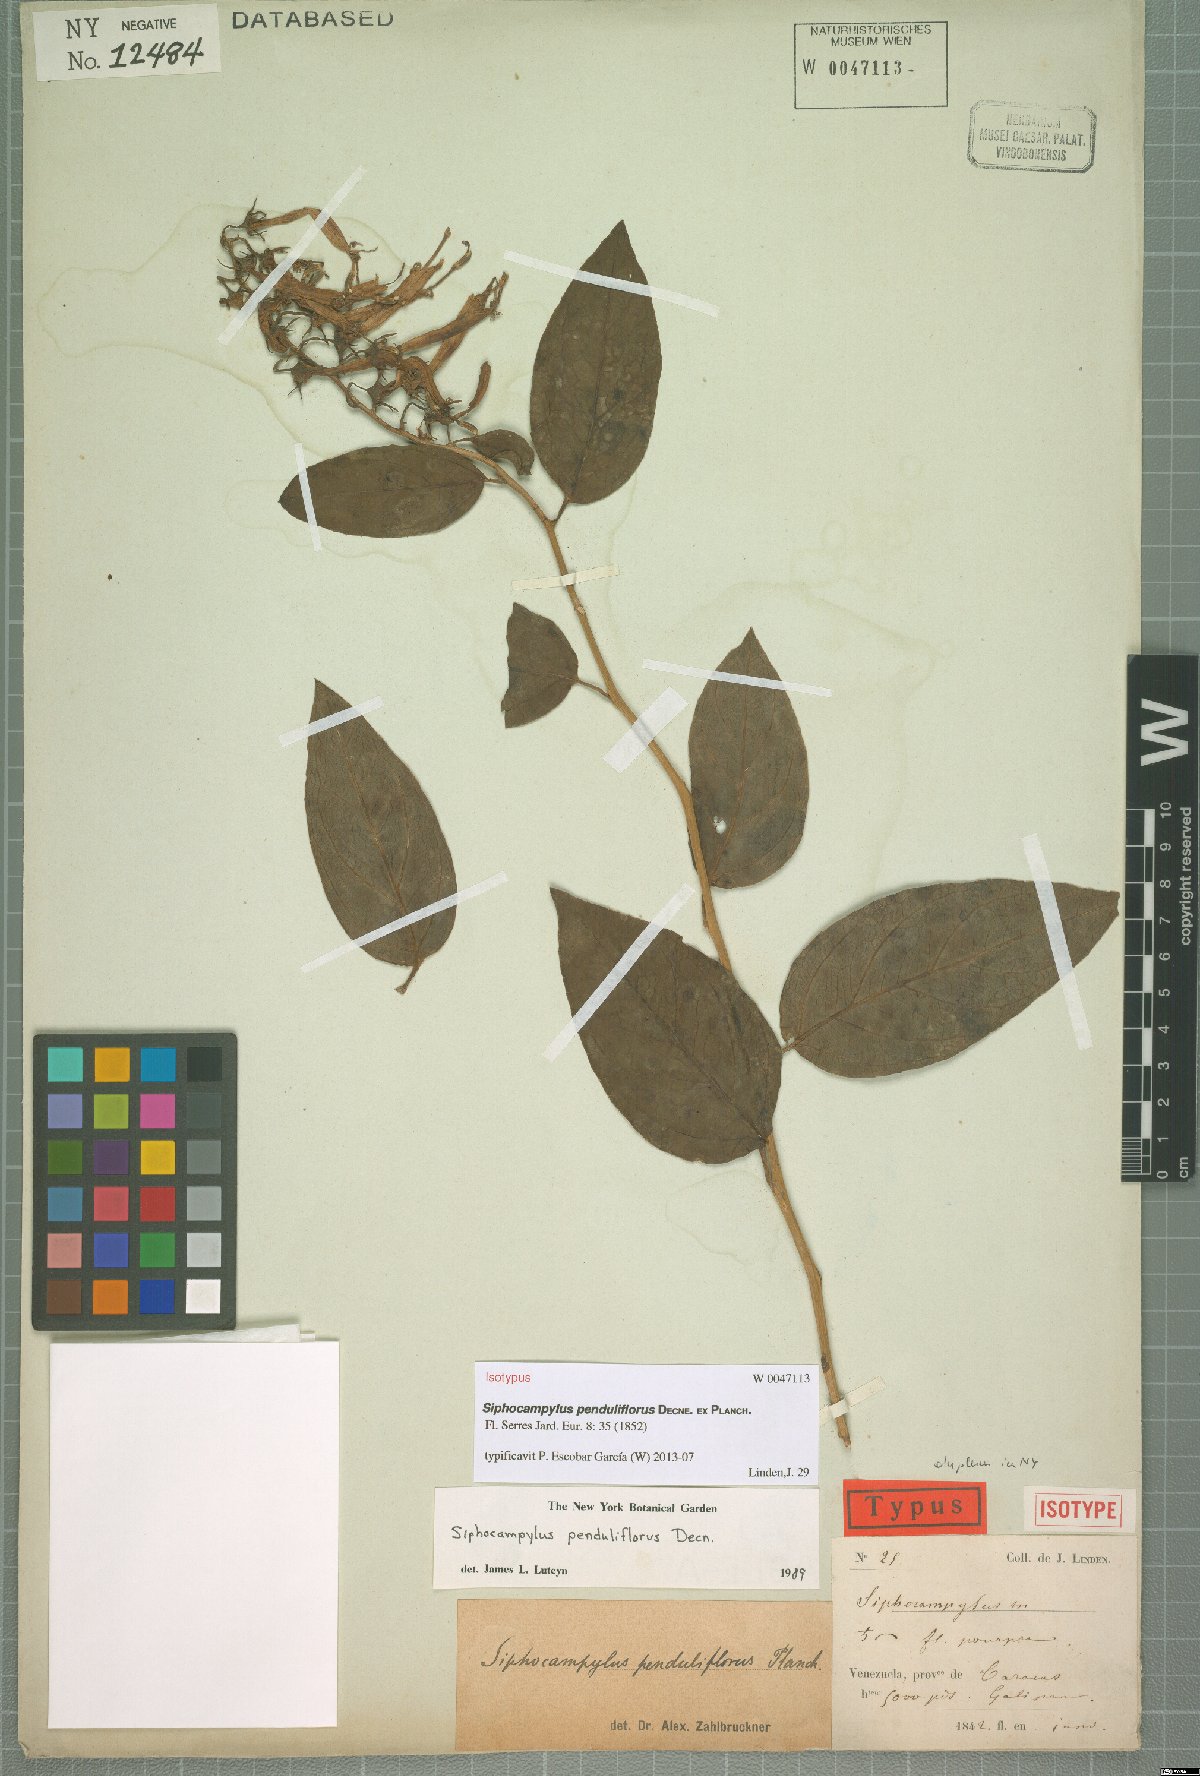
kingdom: Plantae
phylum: Tracheophyta
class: Magnoliopsida
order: Asterales
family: Campanulaceae
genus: Siphocampylus
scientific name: Siphocampylus penduliflorus
